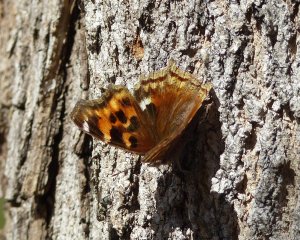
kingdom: Animalia
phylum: Arthropoda
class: Insecta
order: Lepidoptera
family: Nymphalidae
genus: Polygonia
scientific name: Polygonia vaualbum
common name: Compton Tortoiseshell
